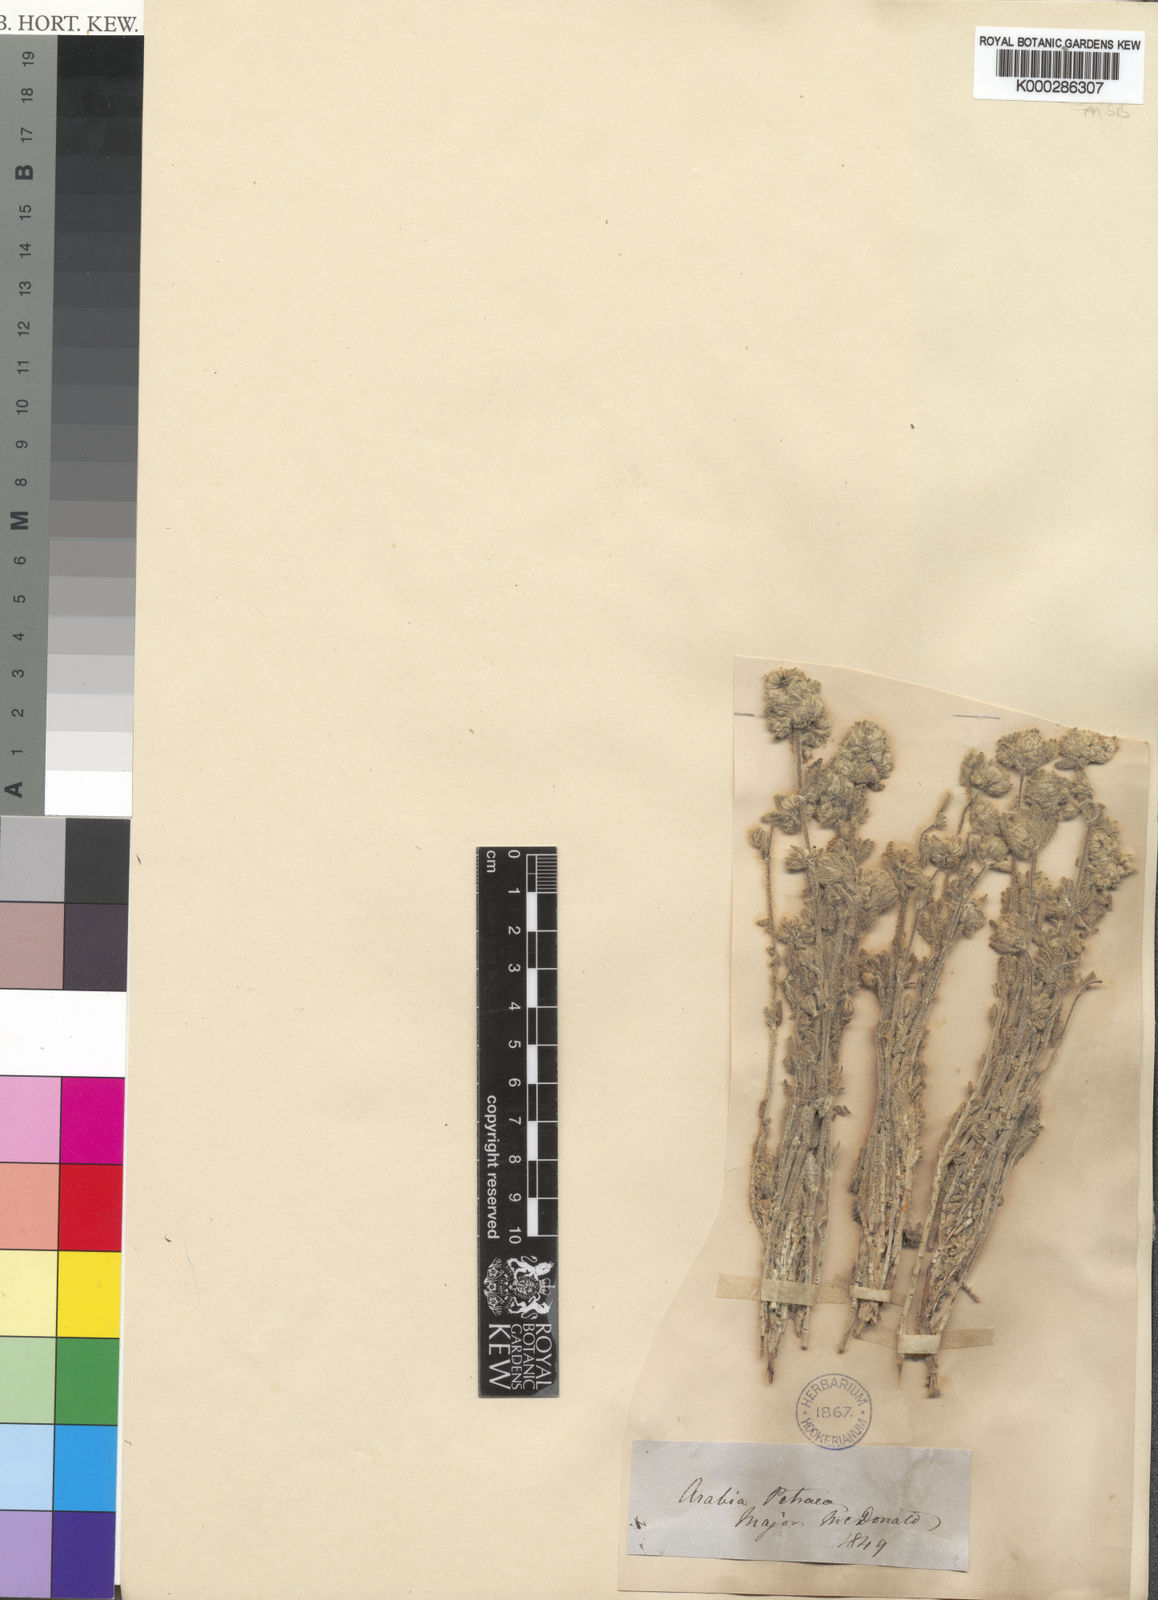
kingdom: Plantae
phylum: Tracheophyta
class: Magnoliopsida
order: Lamiales
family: Lamiaceae
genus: Teucrium
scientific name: Teucrium decaisnei
